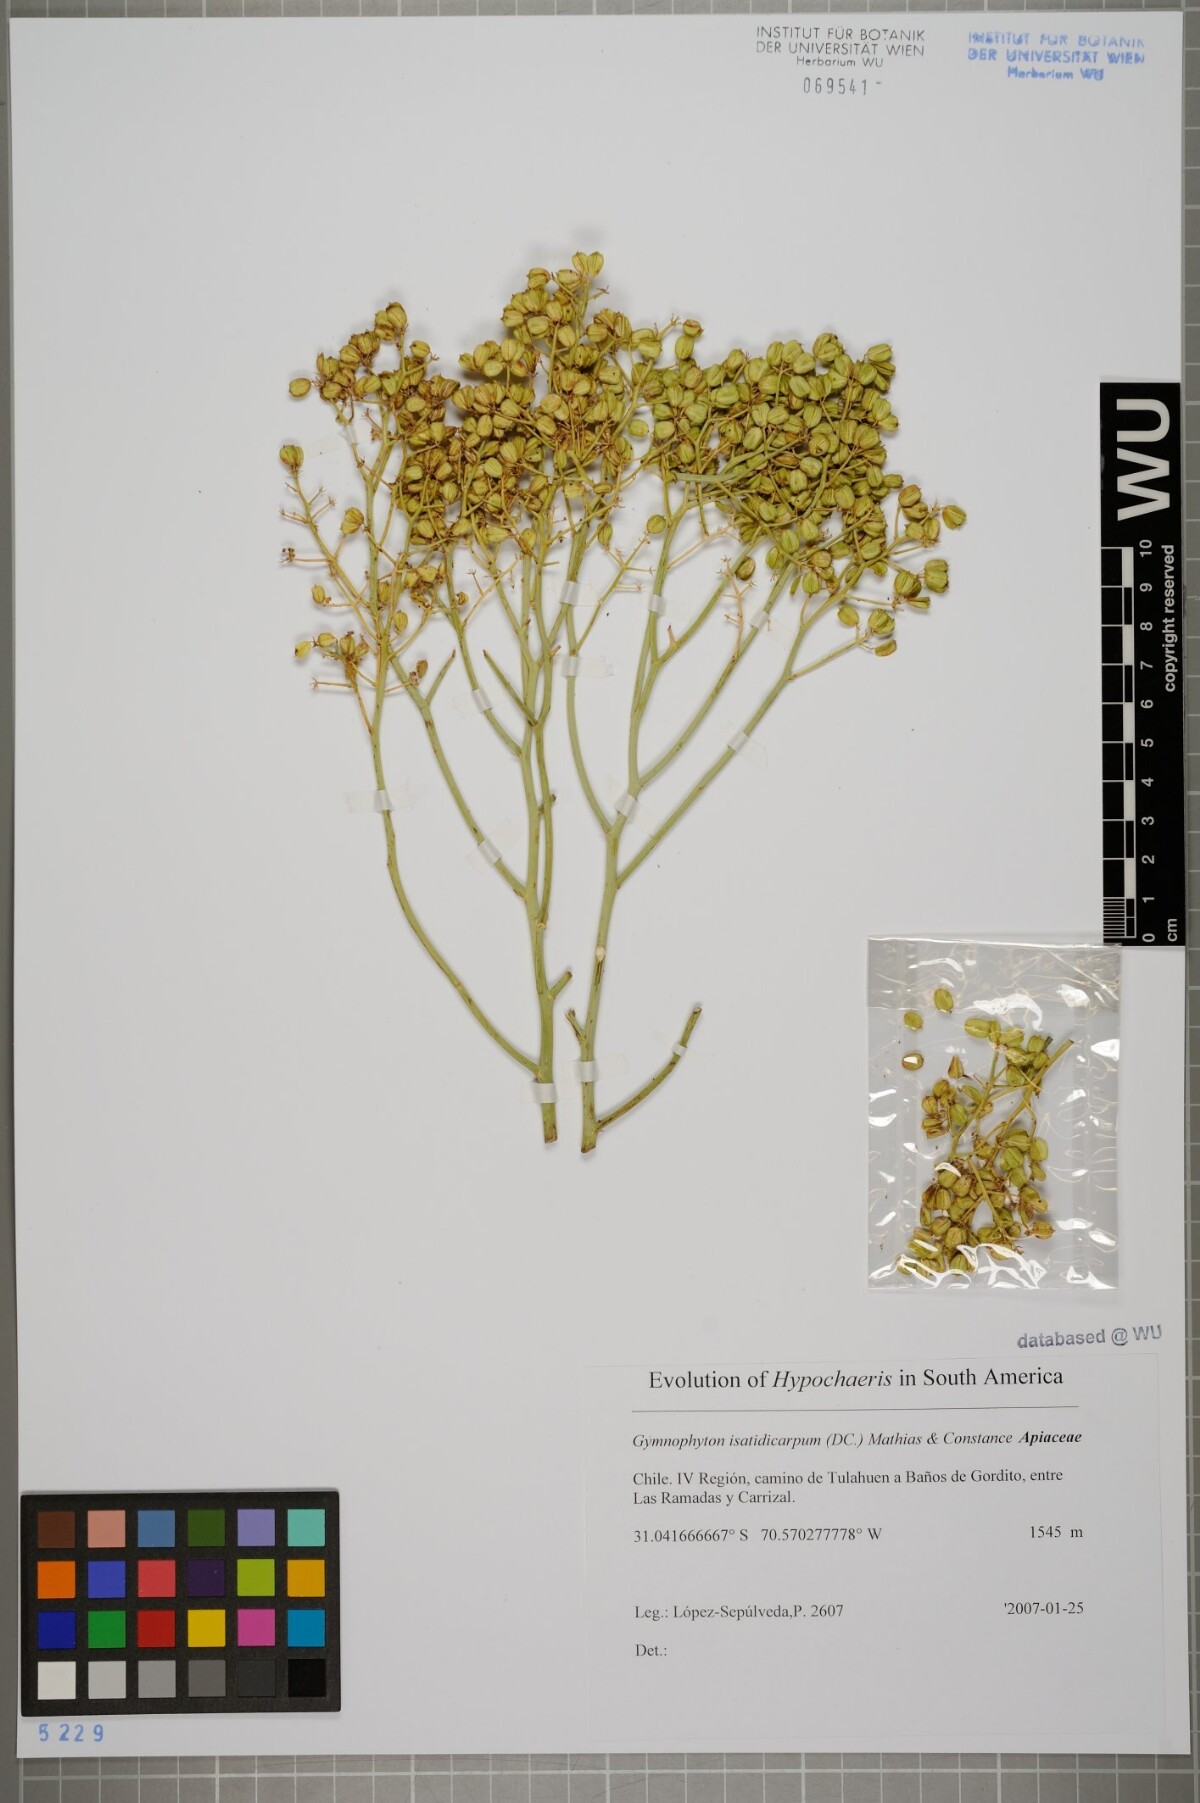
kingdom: Plantae
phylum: Tracheophyta
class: Magnoliopsida
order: Apiales
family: Apiaceae
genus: Gymnophyton
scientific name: Gymnophyton isatidicarpum
